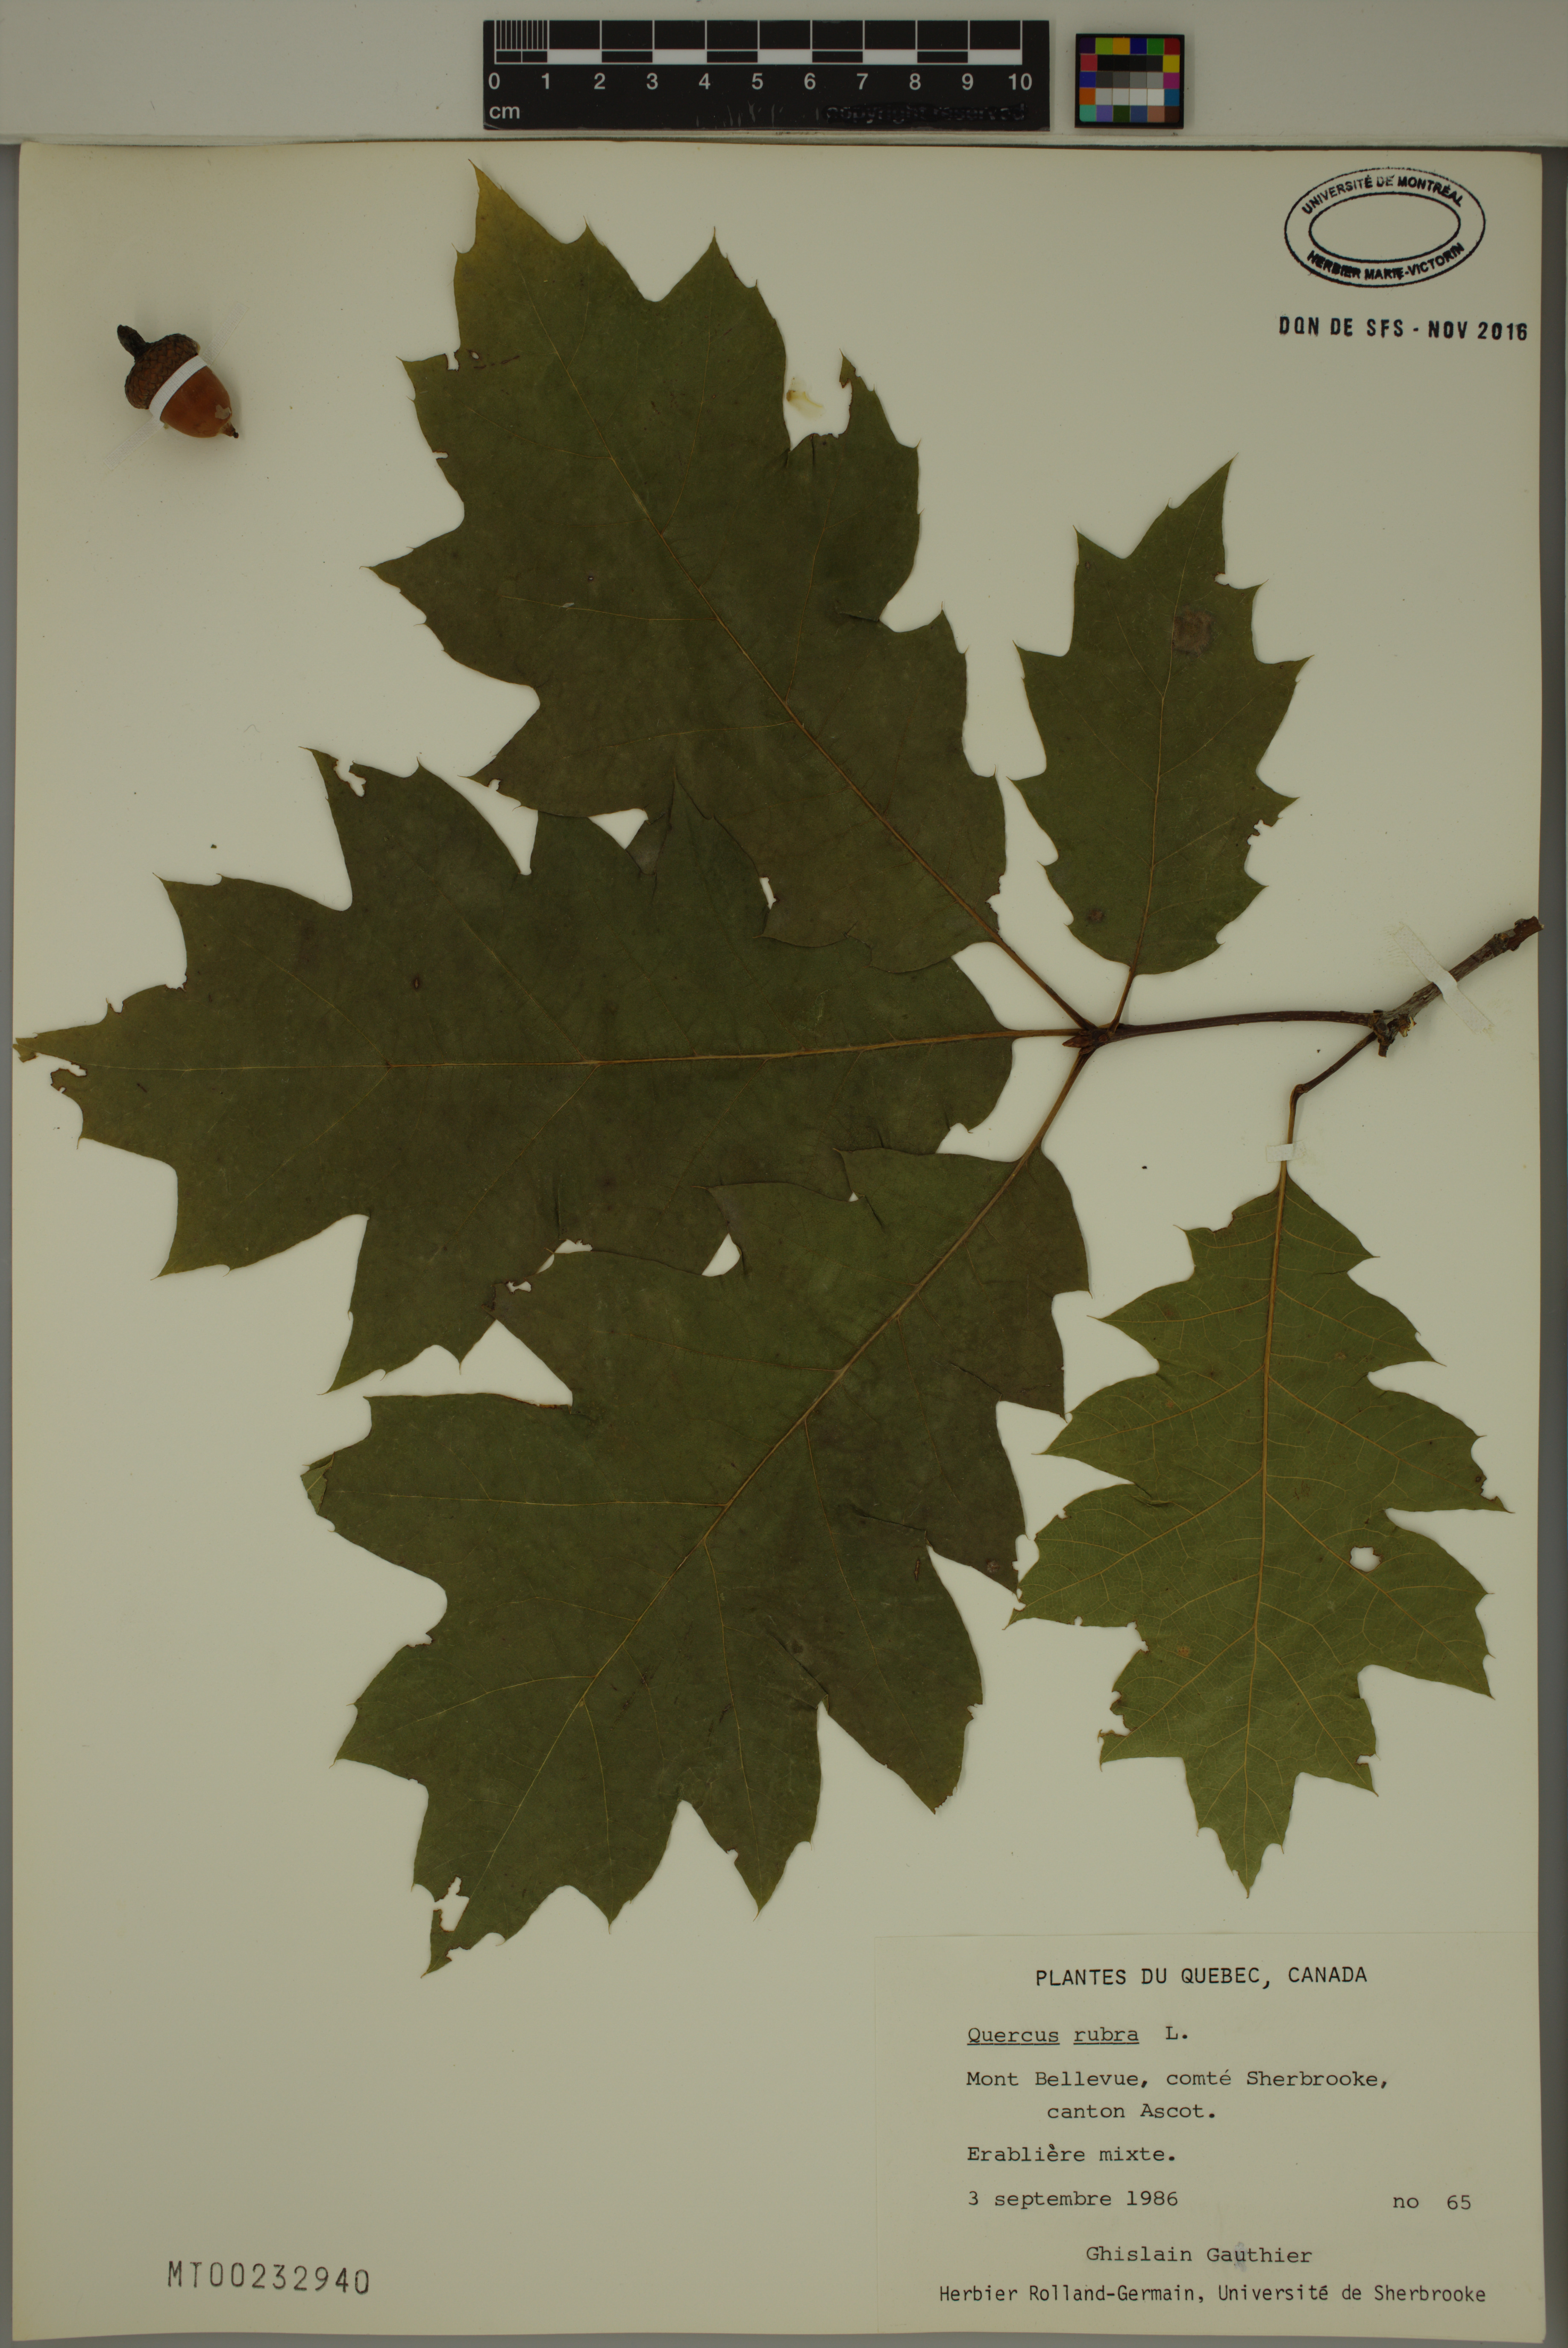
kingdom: Plantae
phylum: Tracheophyta
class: Magnoliopsida
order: Fagales
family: Fagaceae
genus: Quercus
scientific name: Quercus rubra
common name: Red oak
